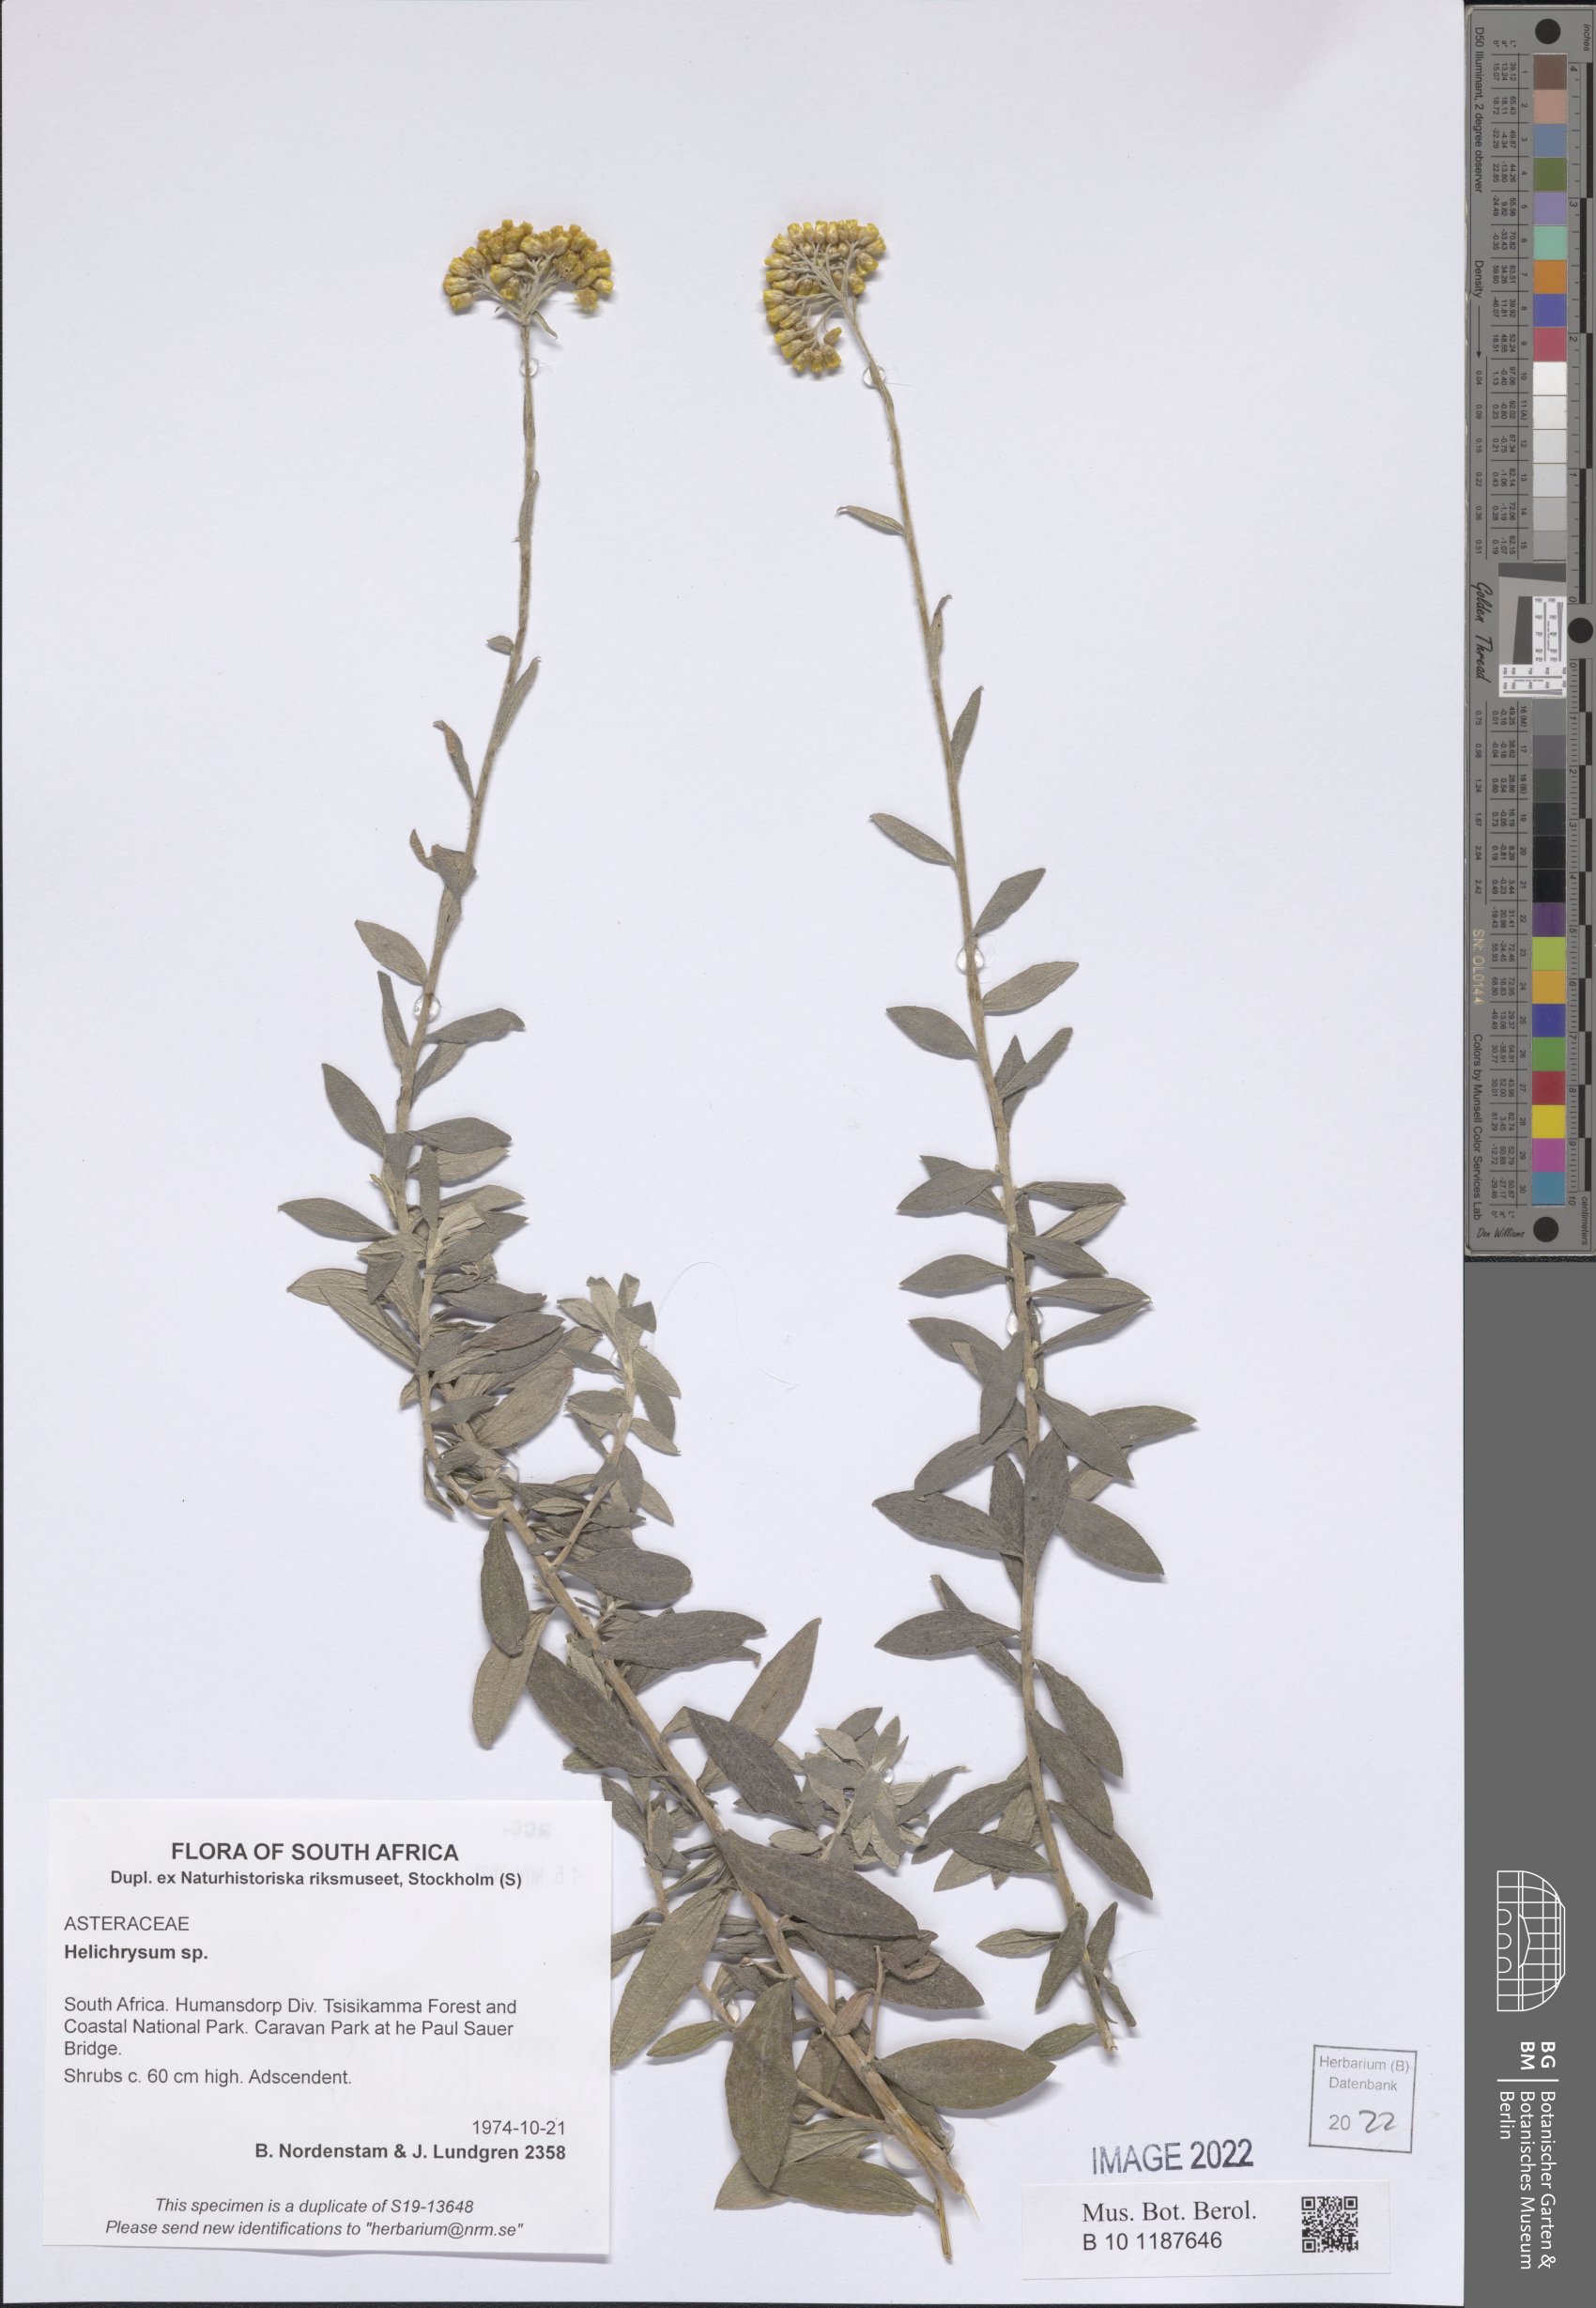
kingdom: Plantae
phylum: Tracheophyta
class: Magnoliopsida
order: Asterales
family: Asteraceae
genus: Helichrysum
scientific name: Helichrysum
